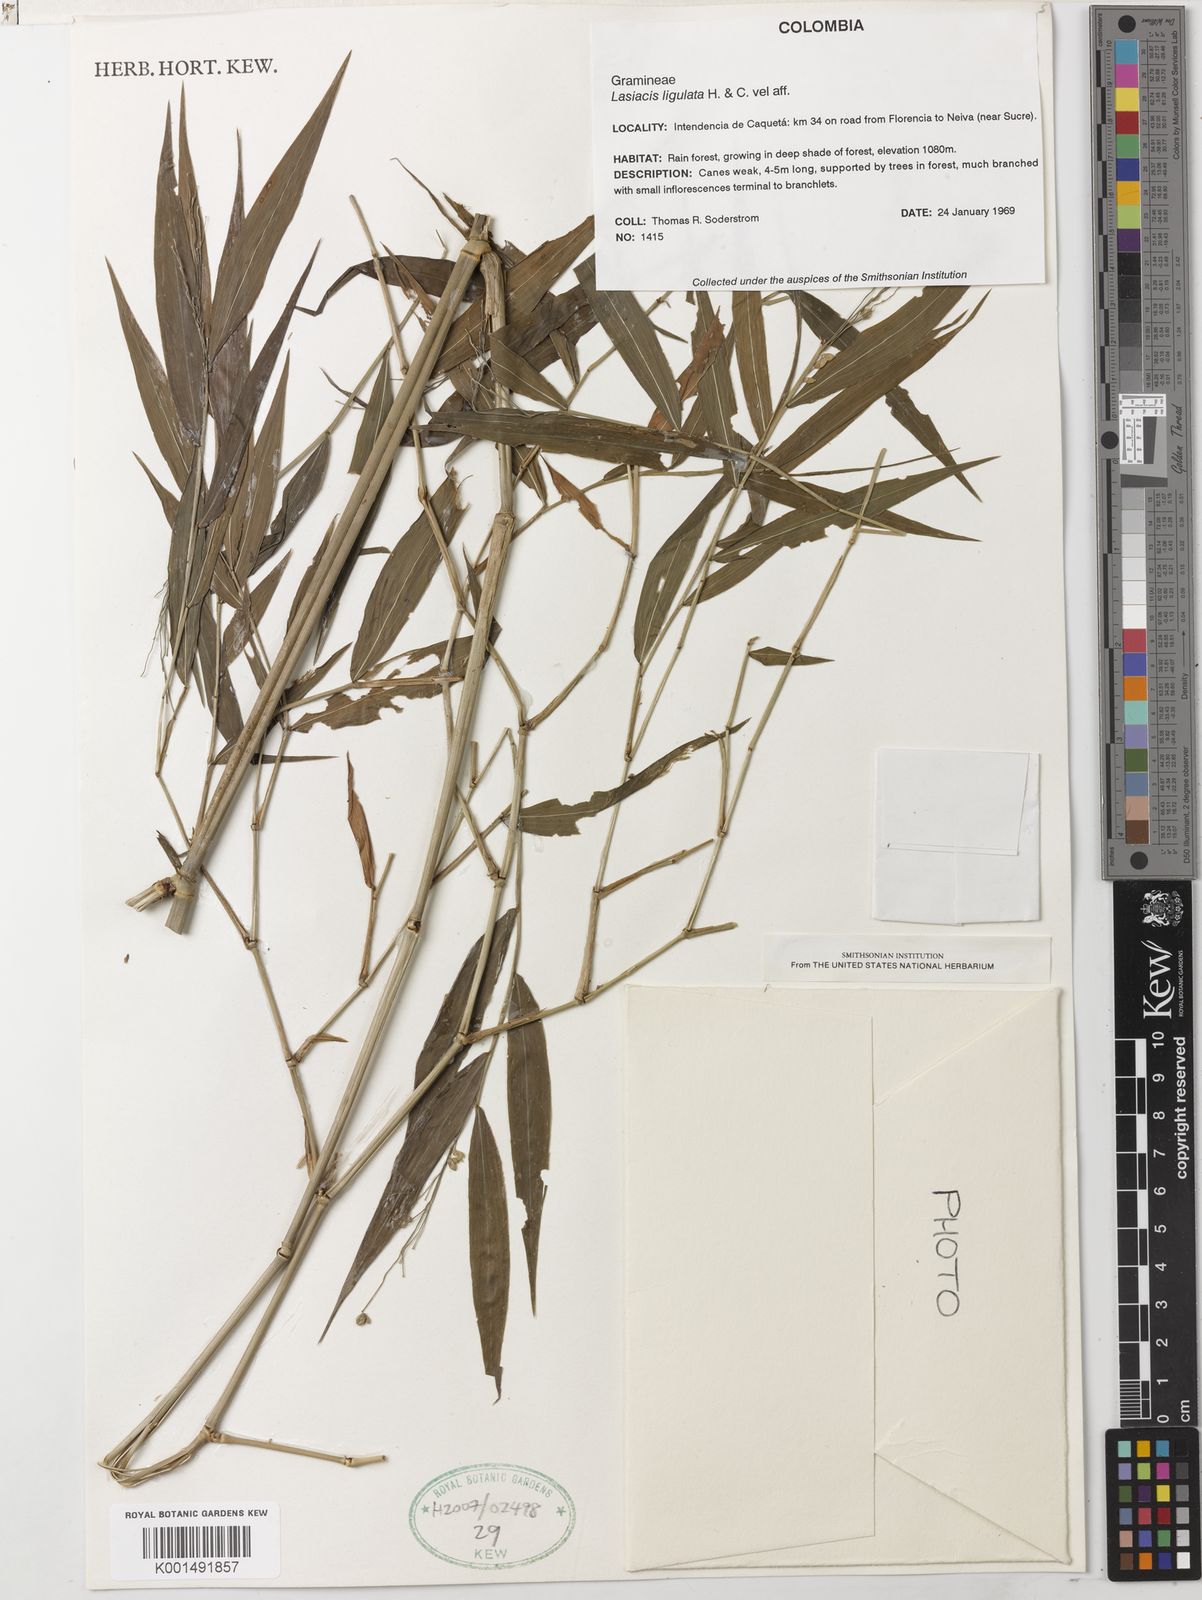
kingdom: Plantae
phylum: Tracheophyta
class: Liliopsida
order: Poales
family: Poaceae
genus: Lasiacis
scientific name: Lasiacis ligulata
